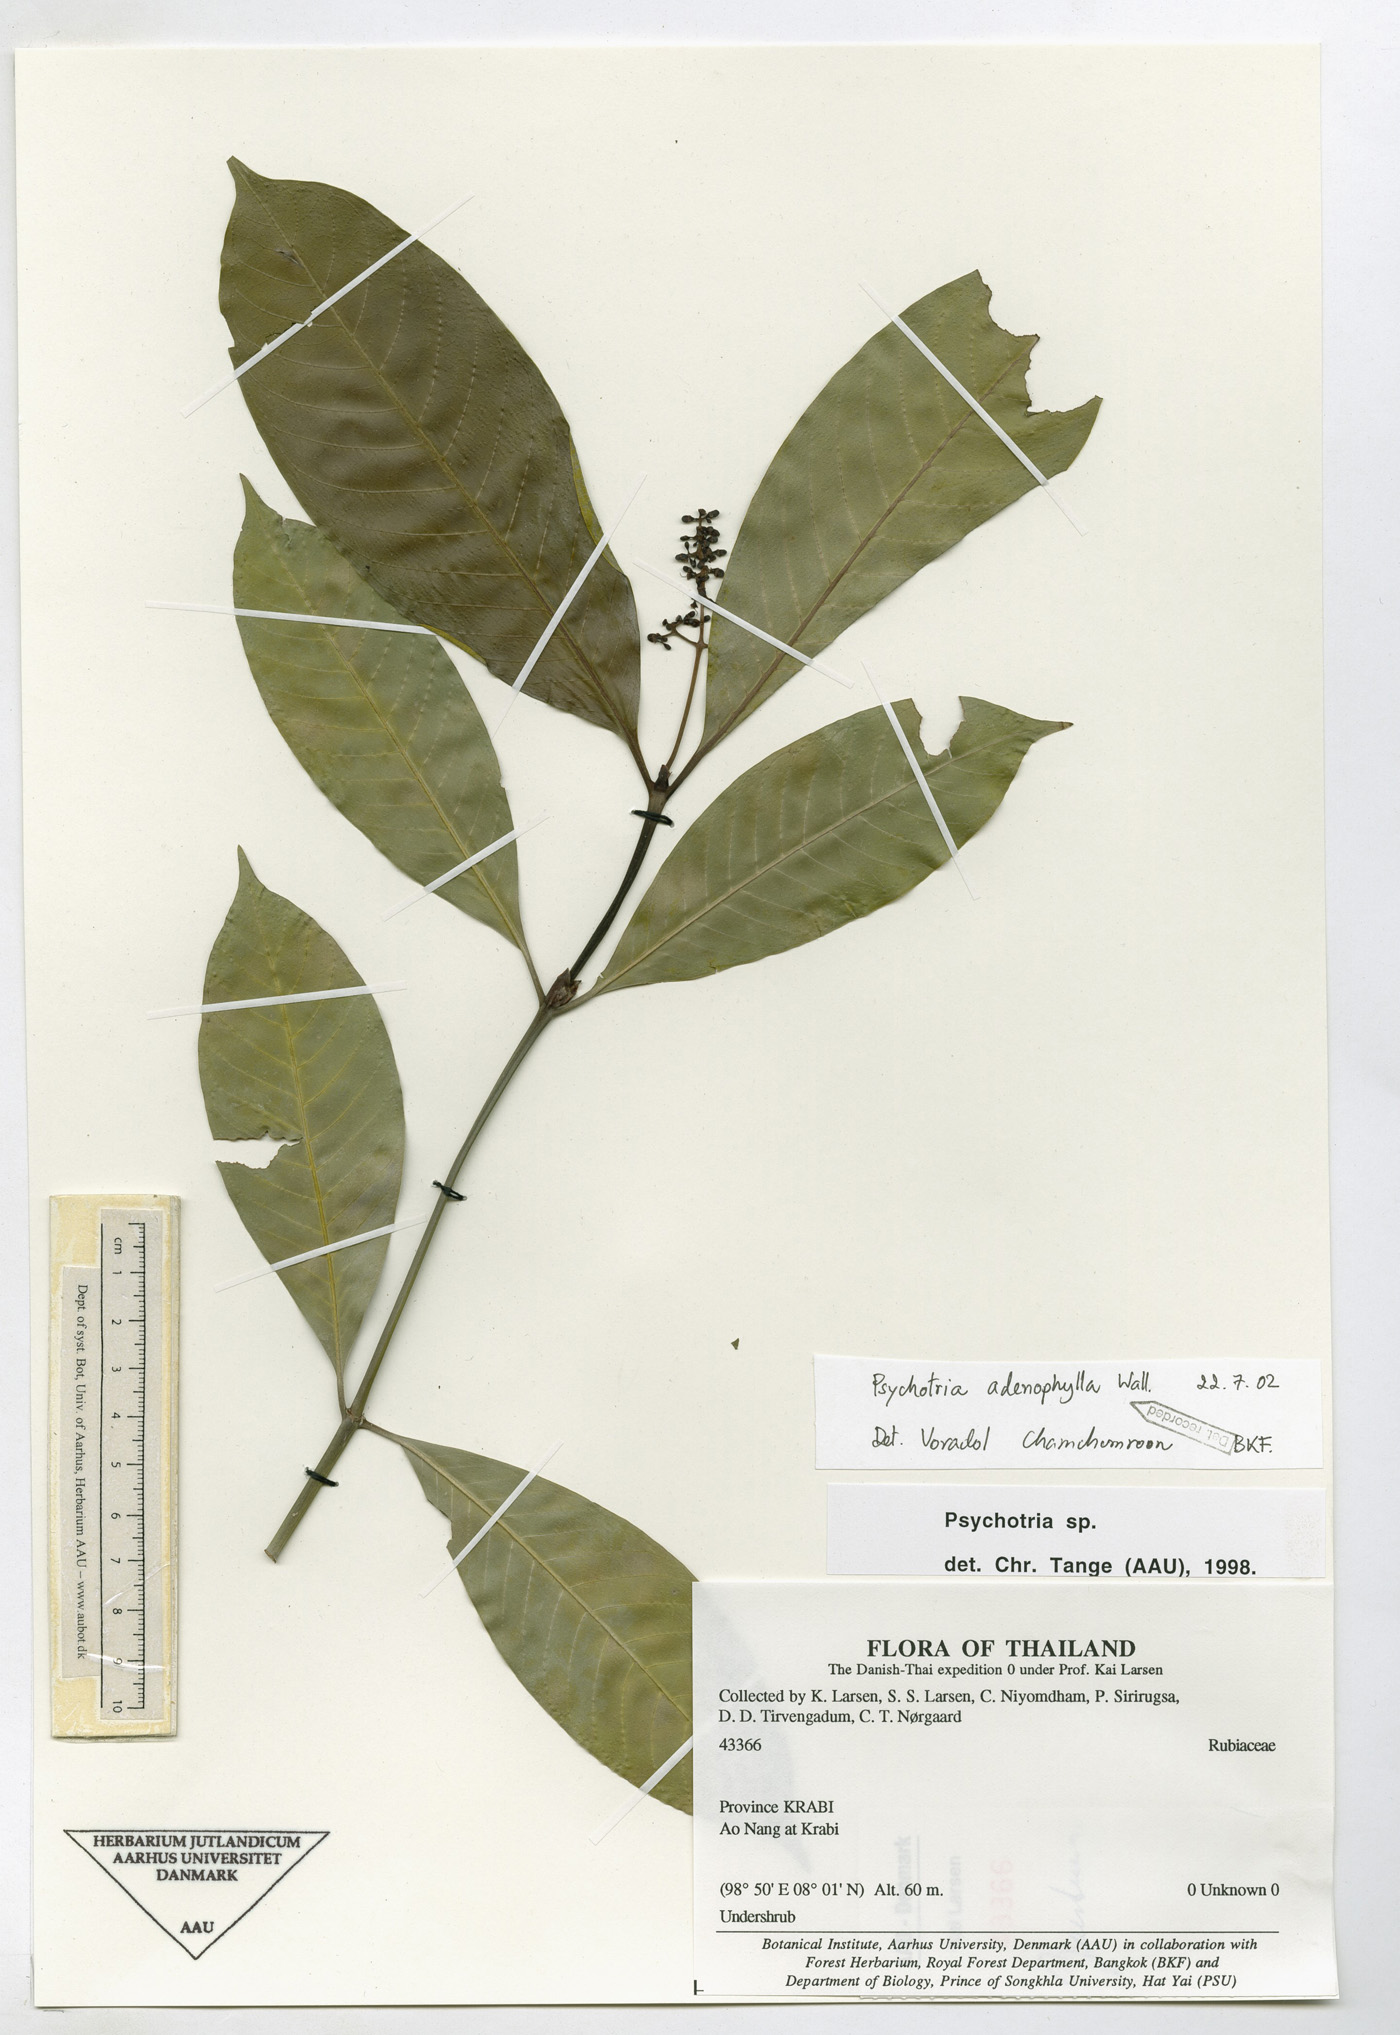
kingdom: Plantae
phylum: Tracheophyta
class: Magnoliopsida
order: Gentianales
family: Rubiaceae
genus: Psychotria
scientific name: Psychotria adenophylla
